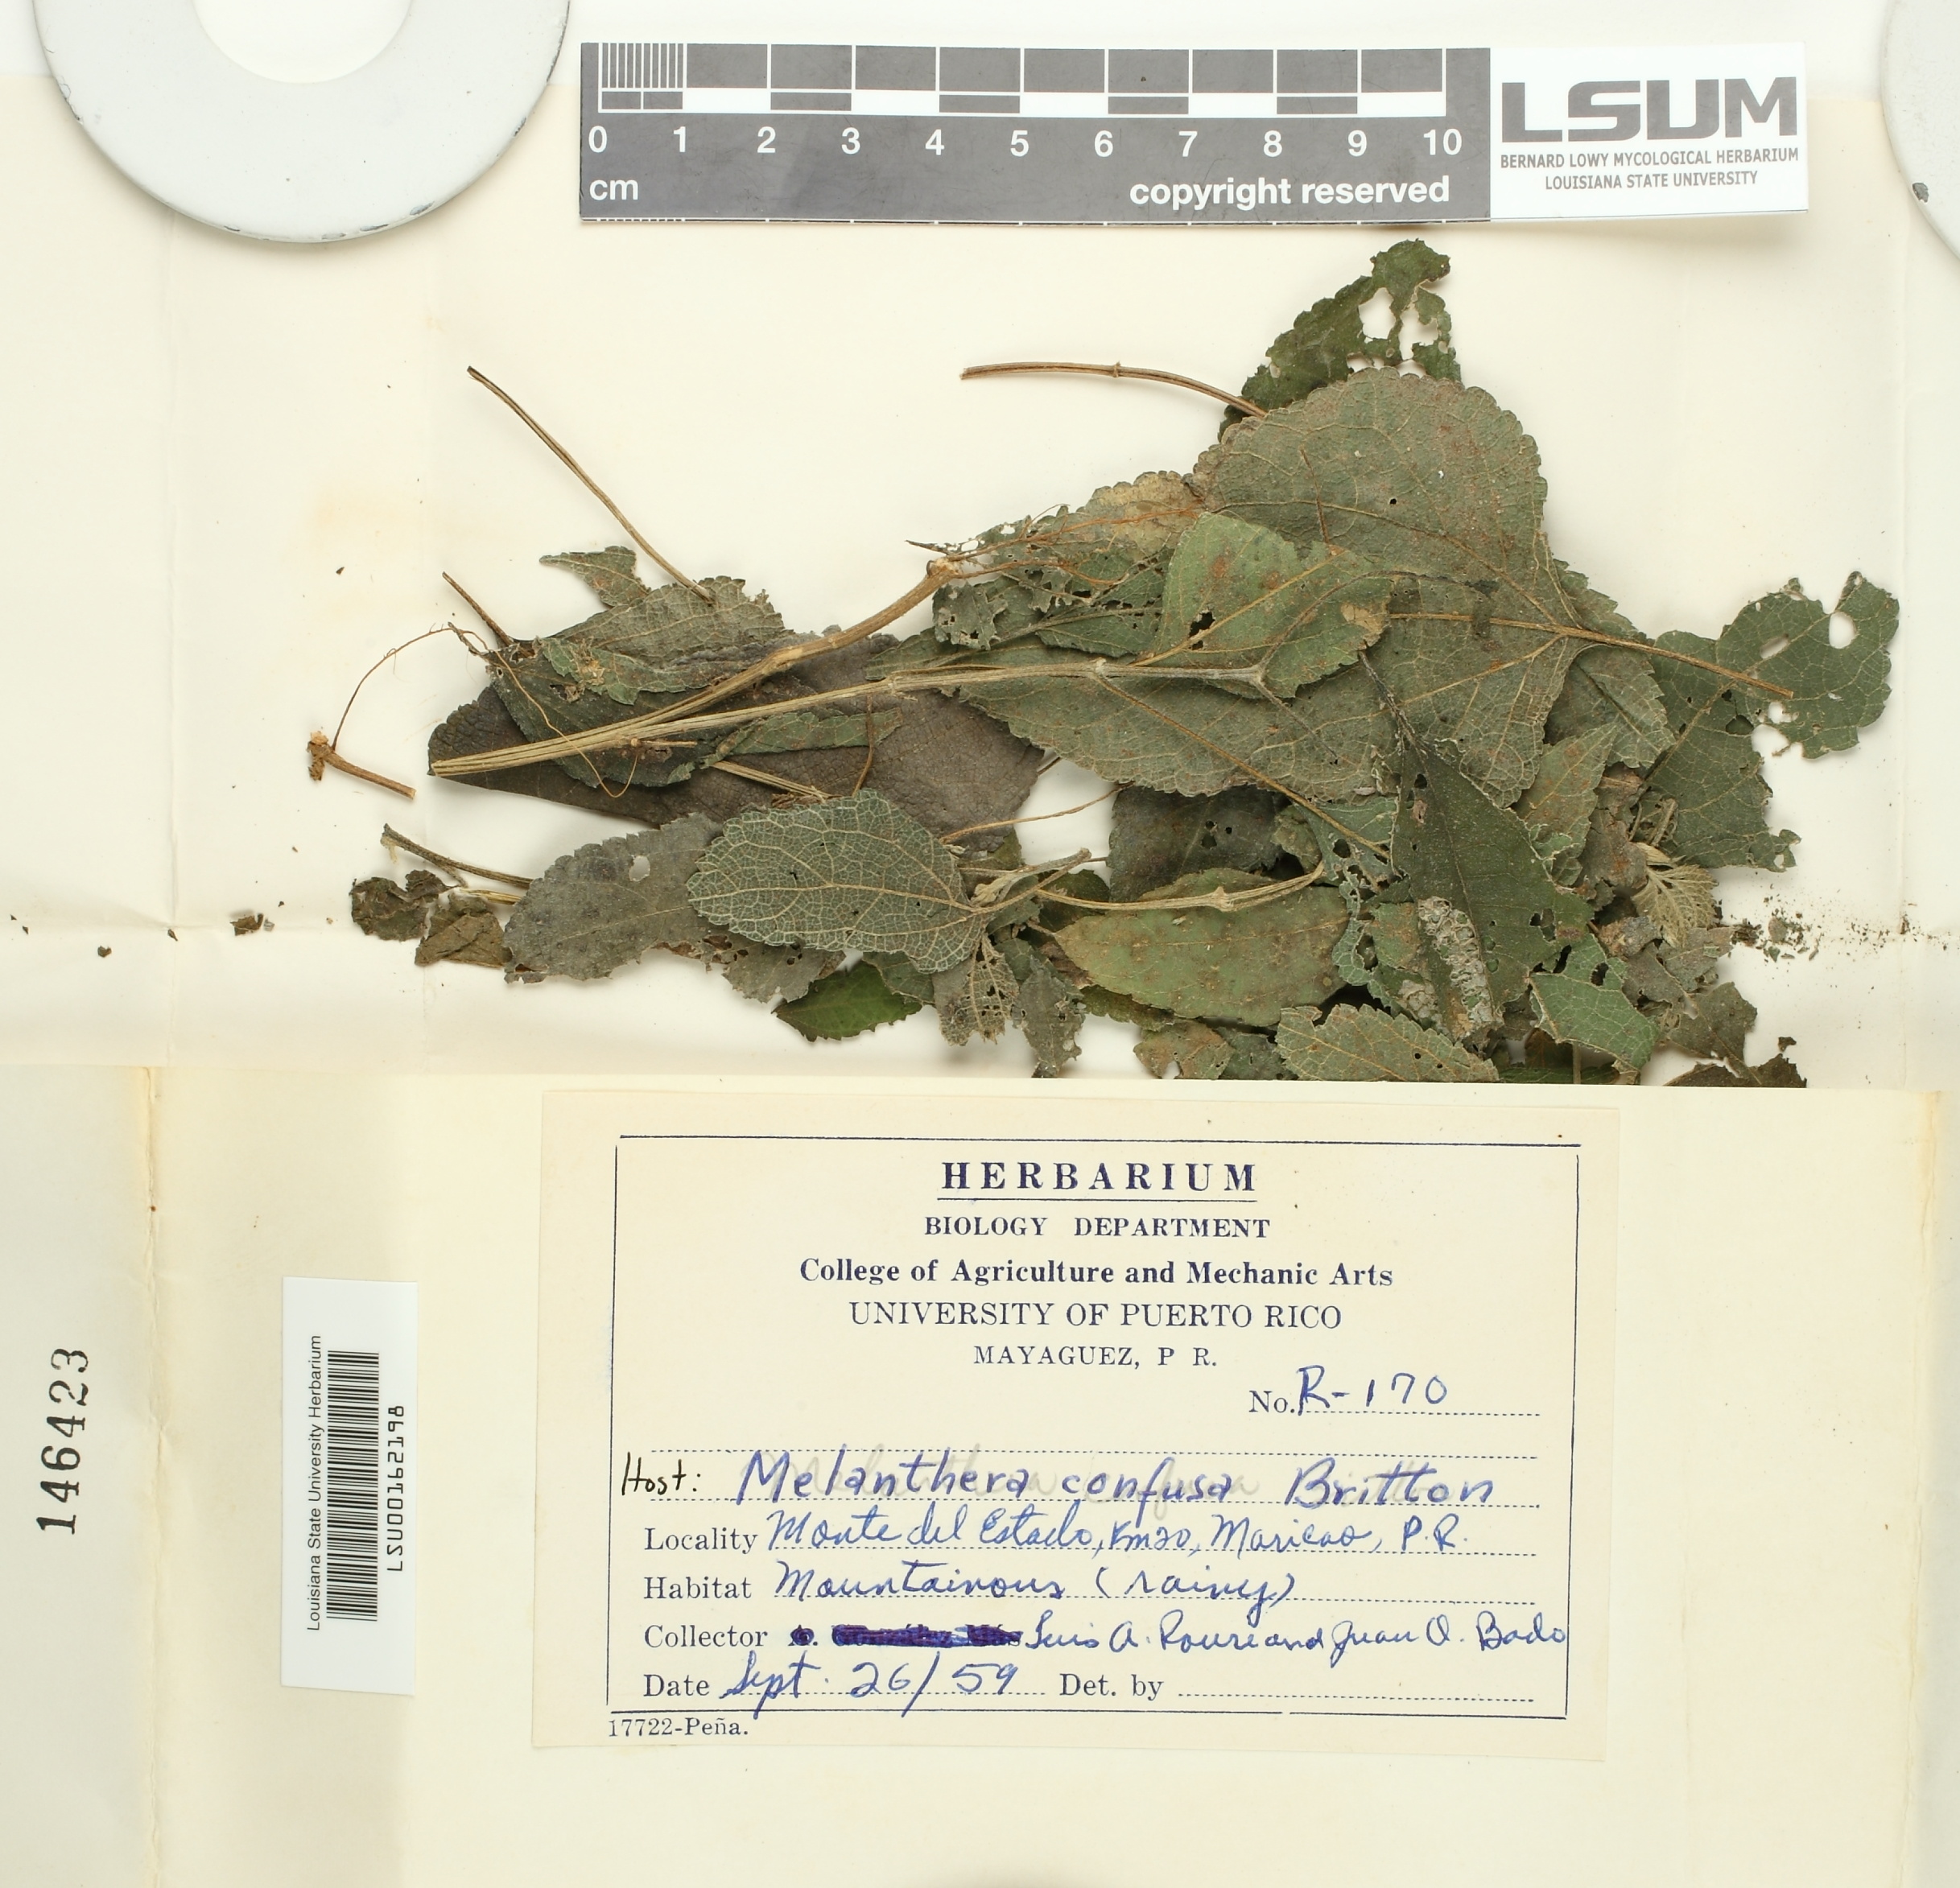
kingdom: Fungi
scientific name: Fungi
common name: Fungi
